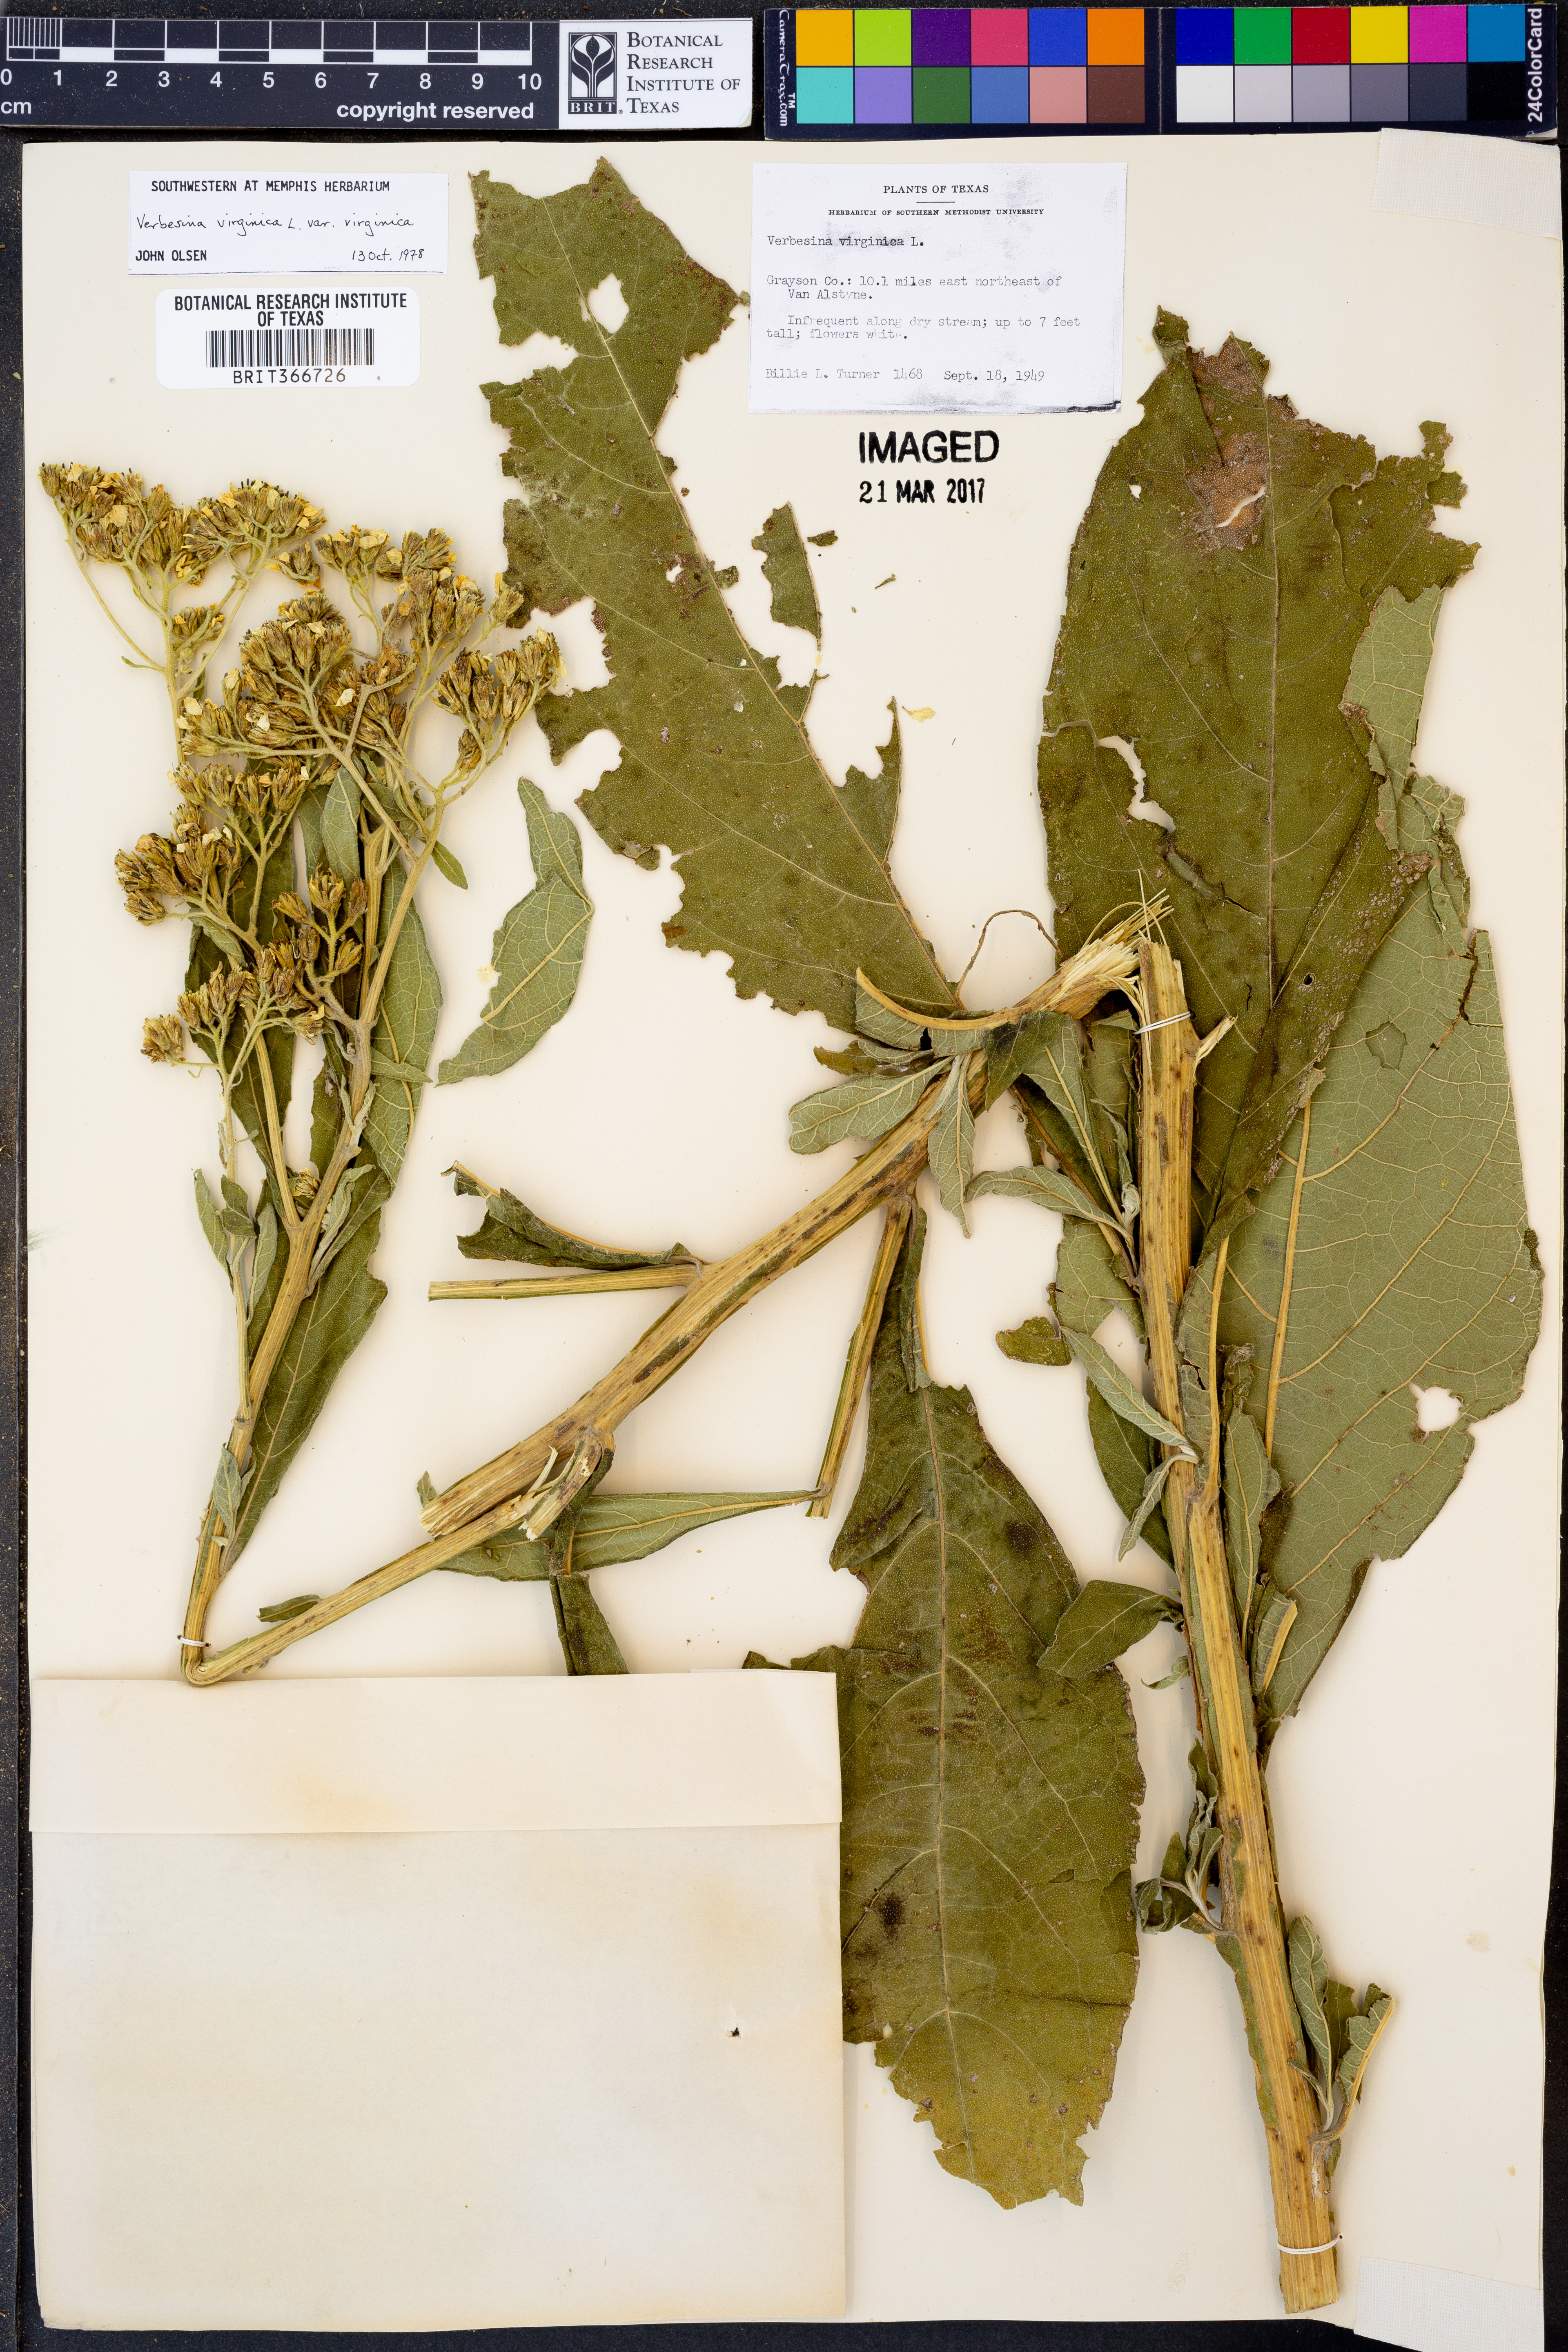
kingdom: Plantae
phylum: Tracheophyta
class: Magnoliopsida
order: Asterales
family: Asteraceae
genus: Verbesina
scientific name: Verbesina virginica
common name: Frostweed
